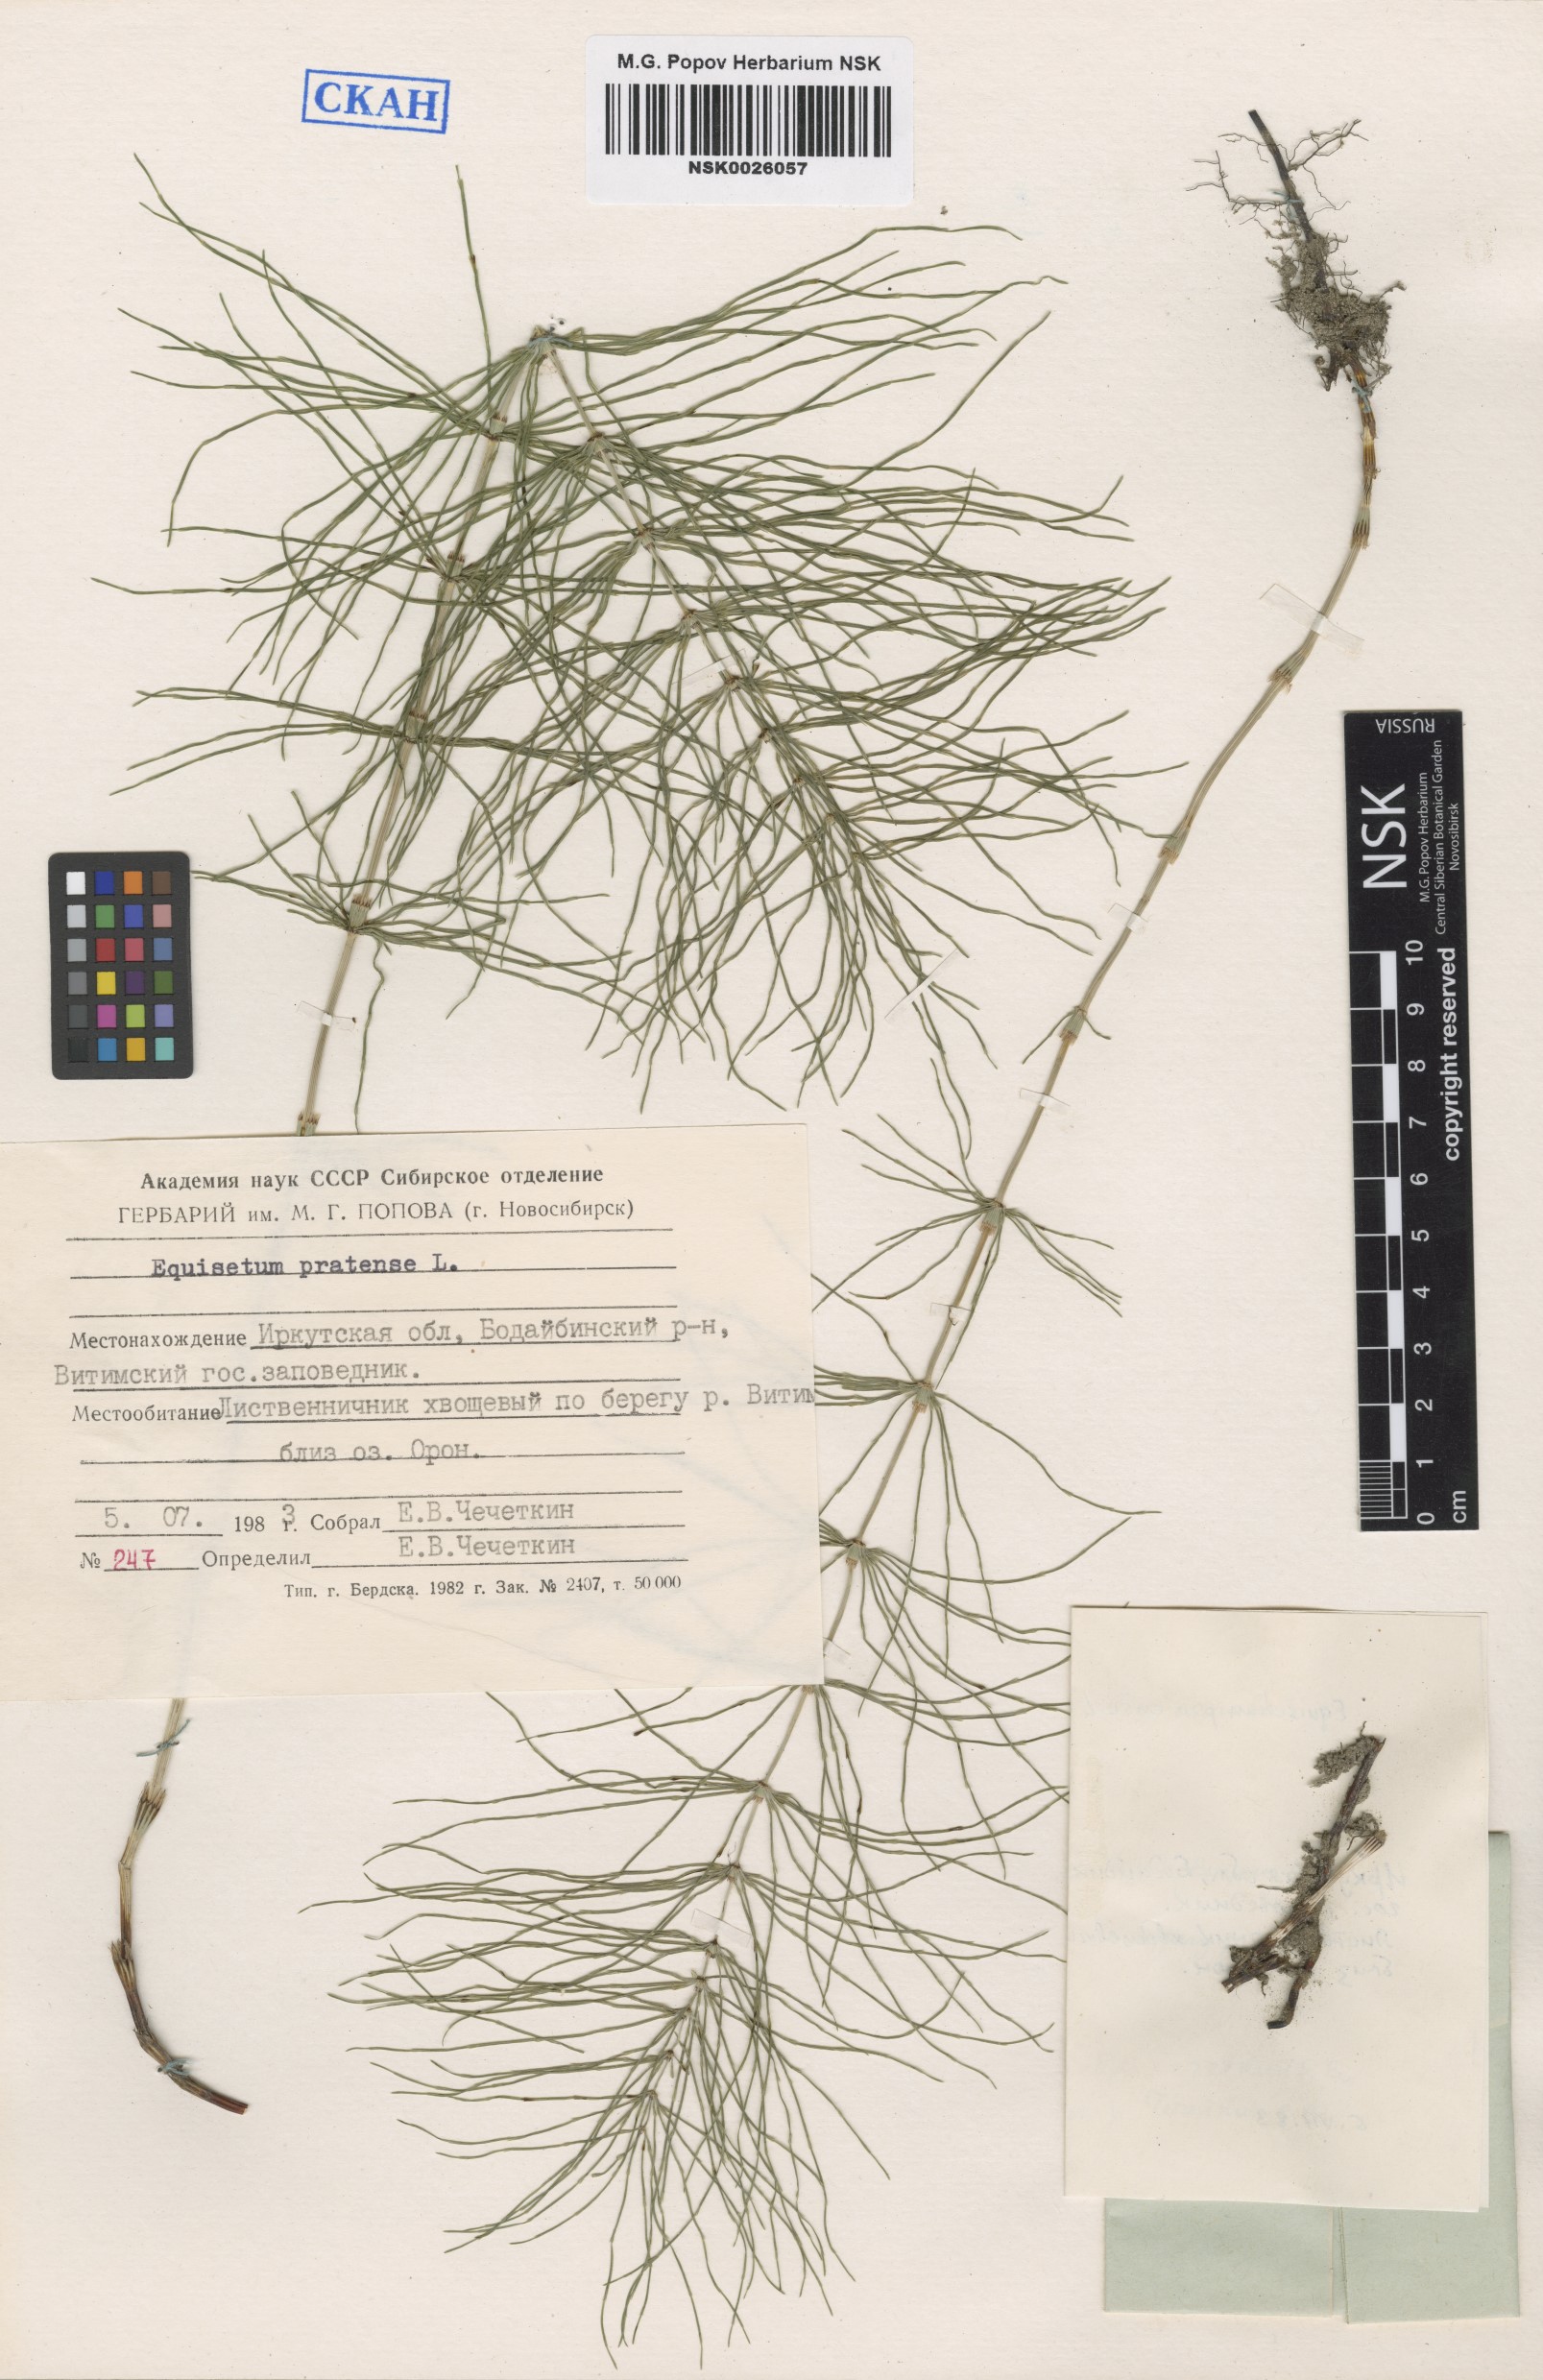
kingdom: Plantae
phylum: Tracheophyta
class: Polypodiopsida
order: Equisetales
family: Equisetaceae
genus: Equisetum
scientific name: Equisetum pratense
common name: Meadow horsetail
